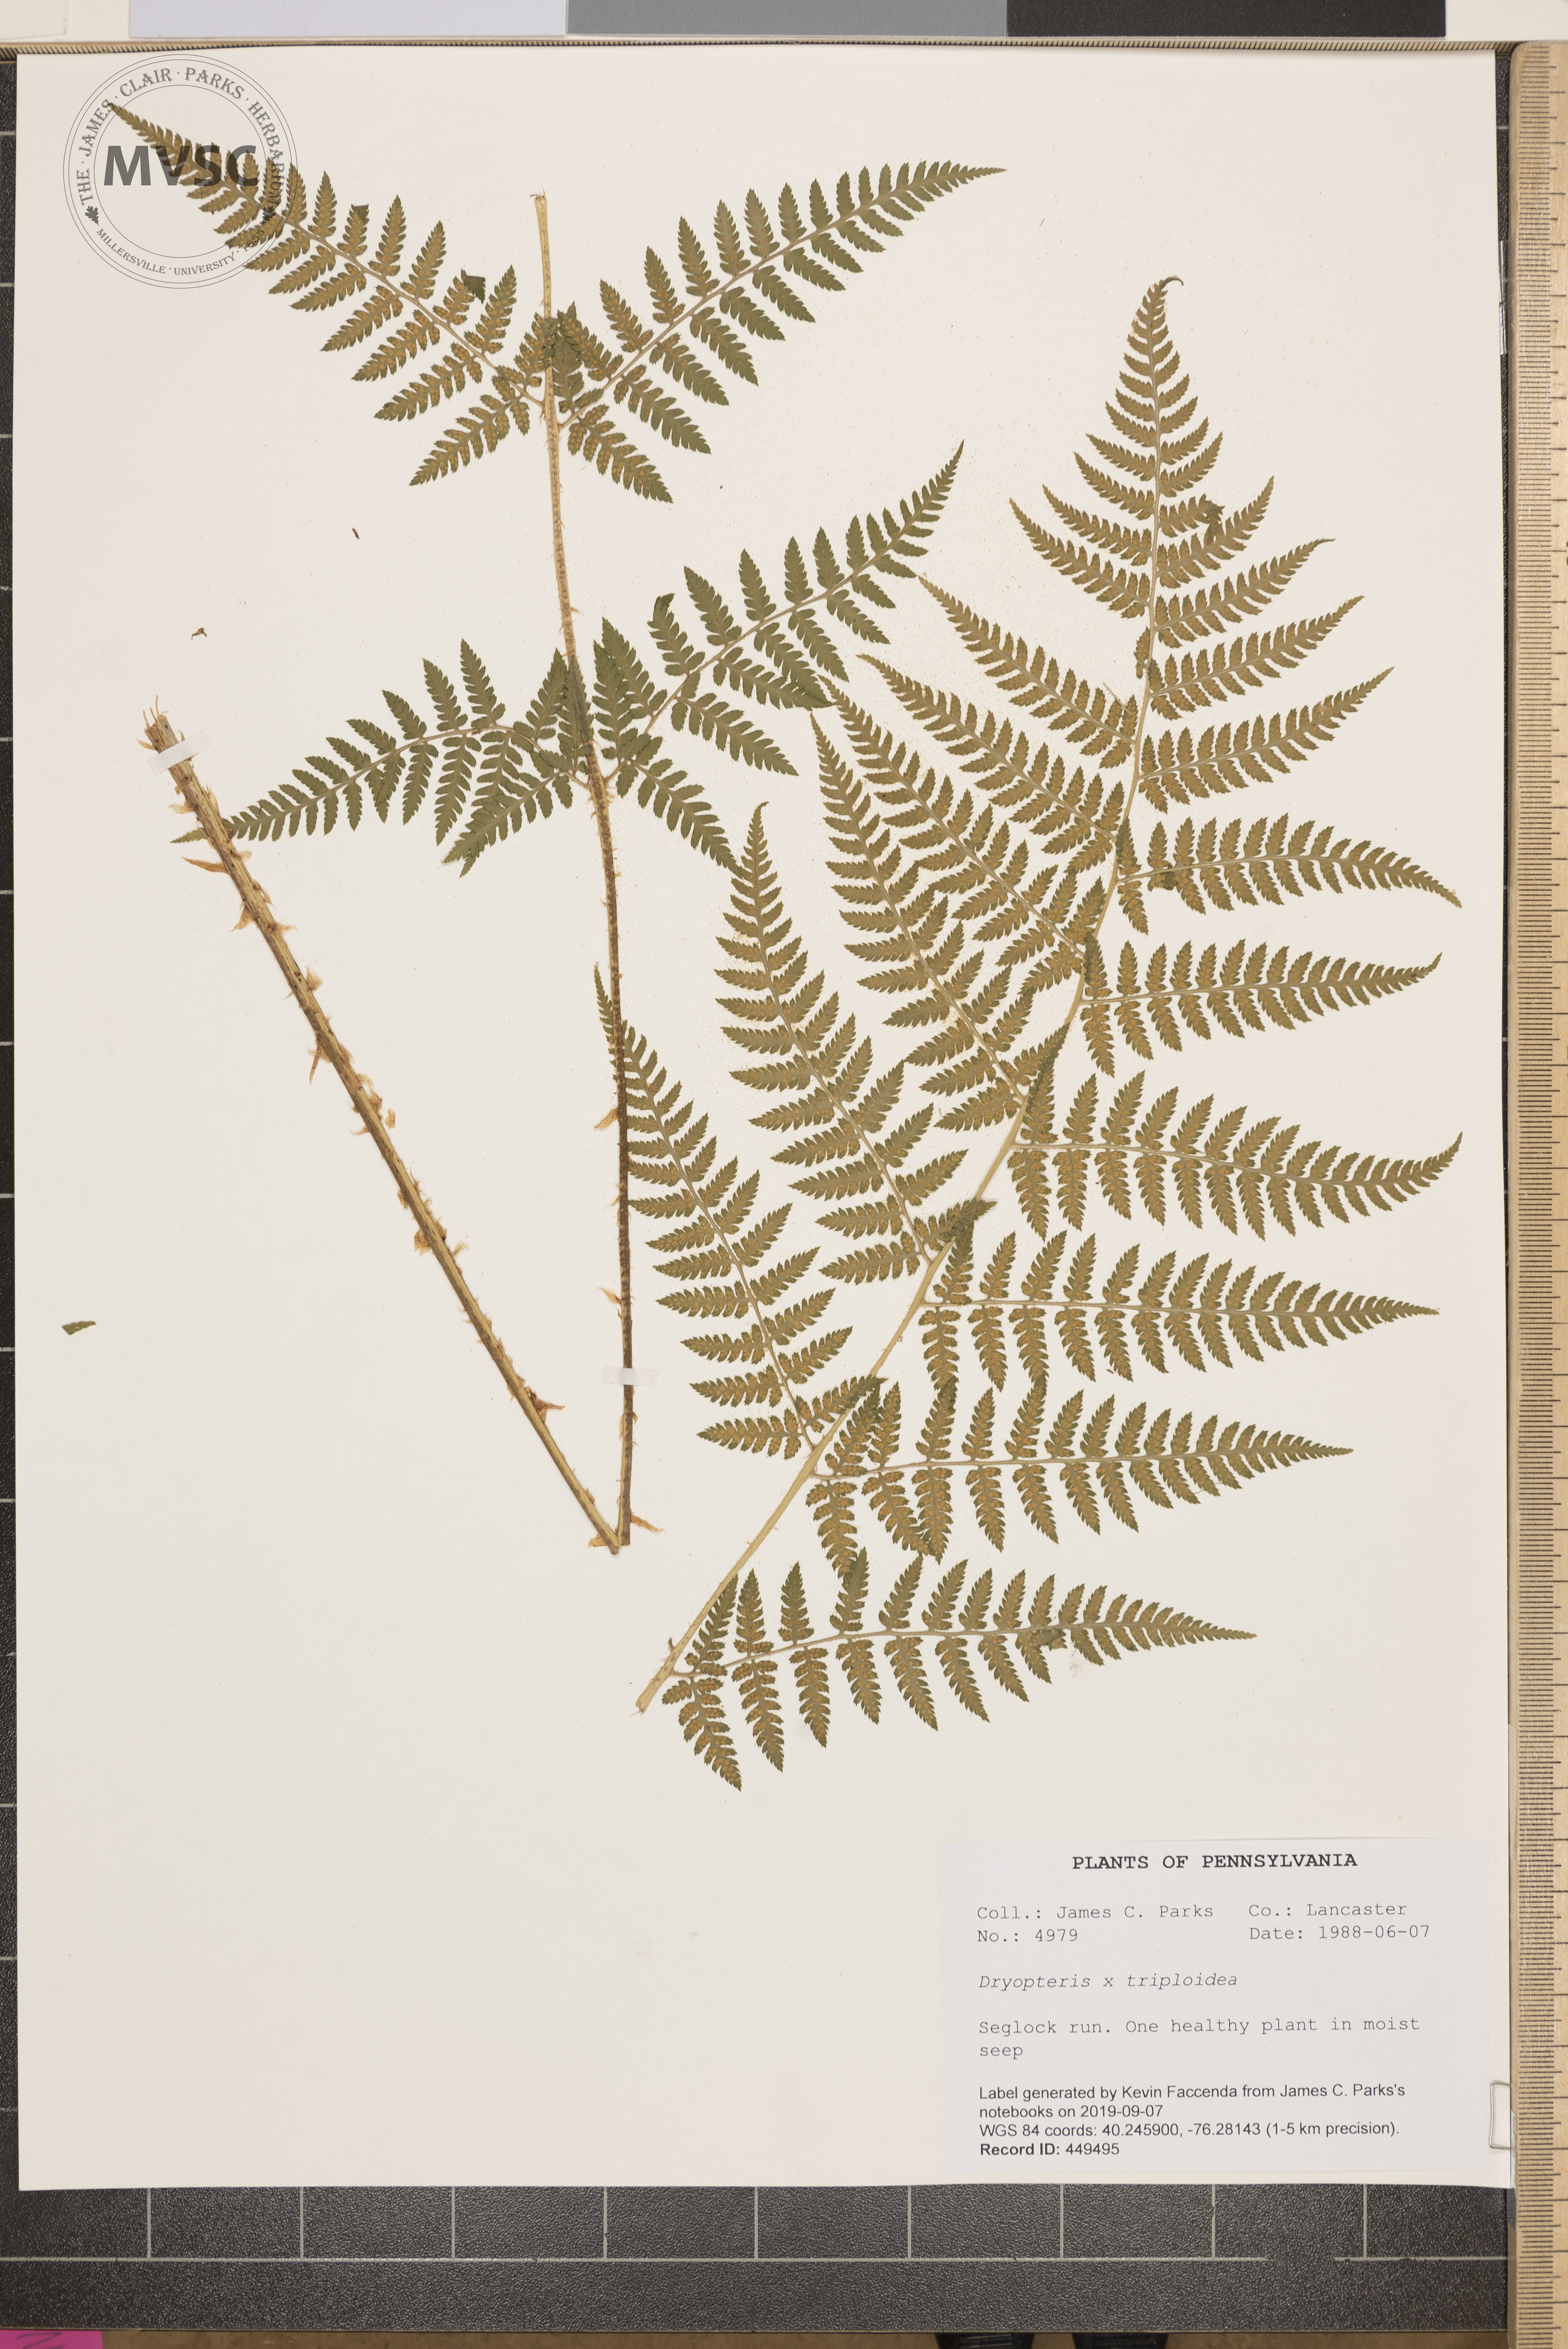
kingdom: Plantae
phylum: Tracheophyta
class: Polypodiopsida
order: Polypodiales
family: Dryopteridaceae
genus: Dryopteris
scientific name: Dryopteris triploidea
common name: Fruitful wood fern
